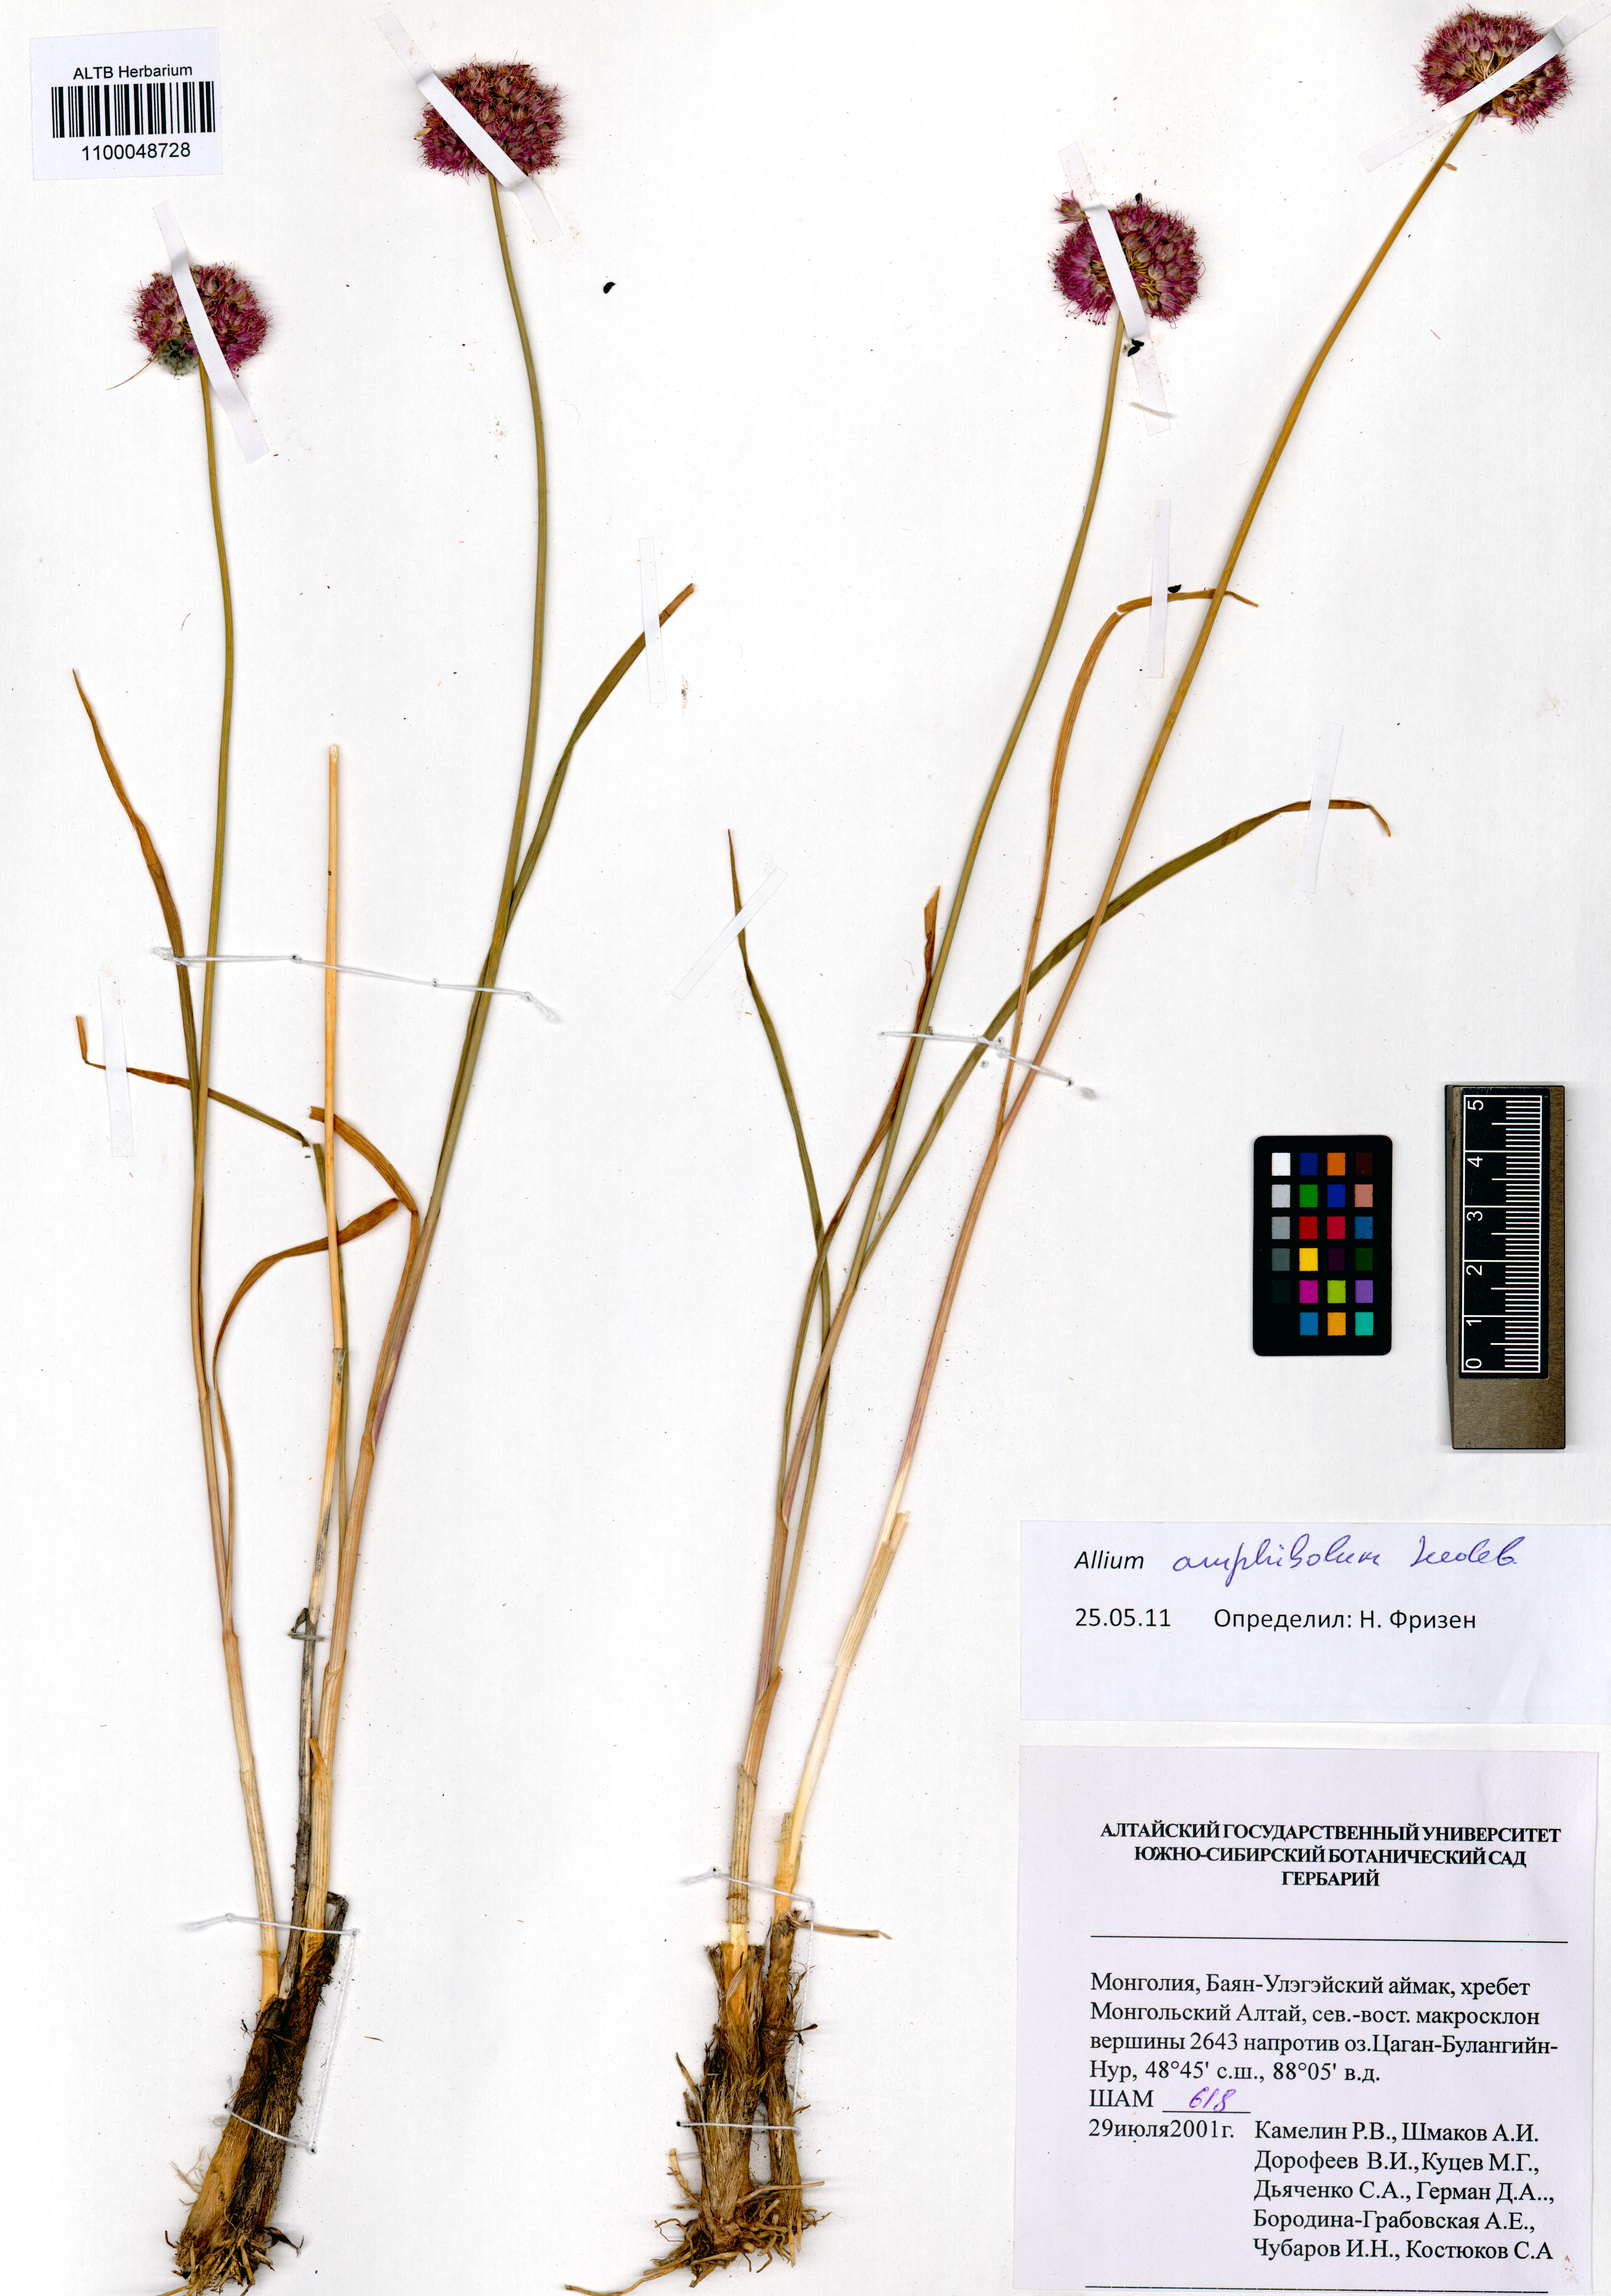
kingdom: Plantae
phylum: Tracheophyta
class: Liliopsida
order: Asparagales
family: Amaryllidaceae
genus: Allium
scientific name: Allium amphibolum
